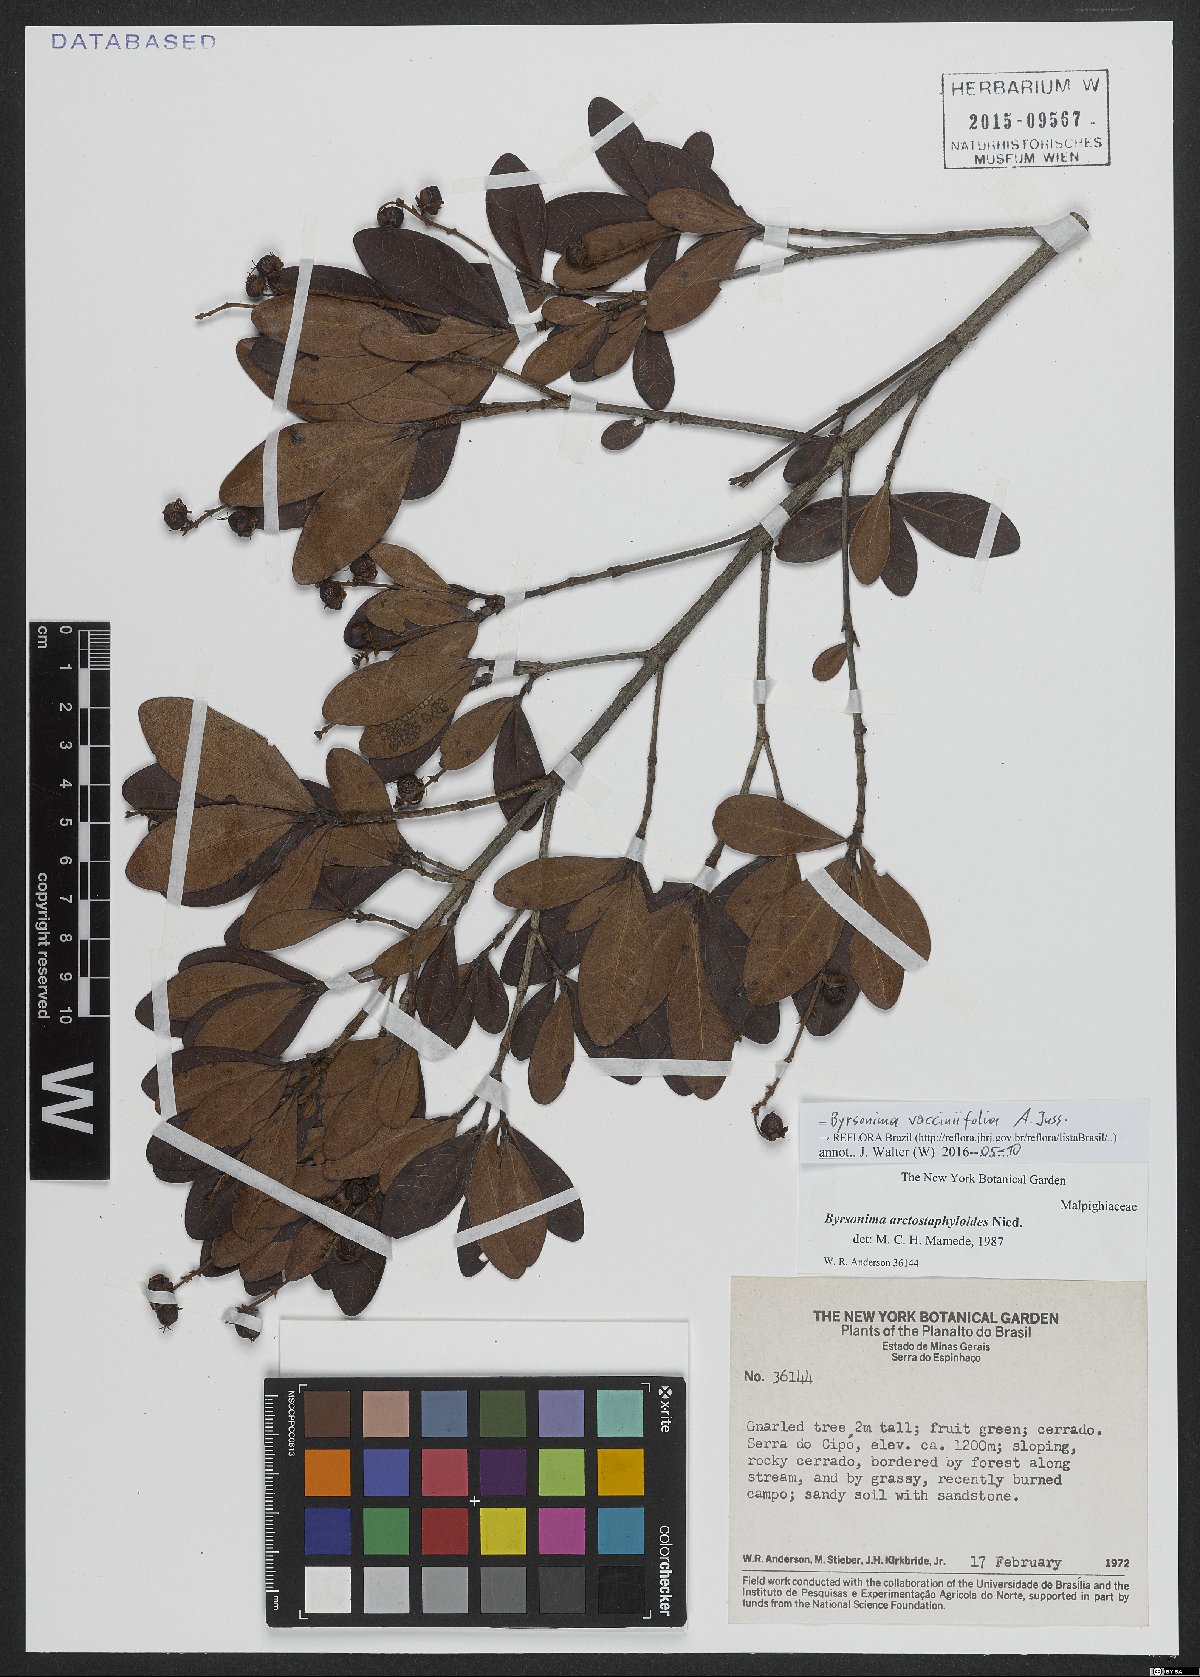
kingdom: Plantae
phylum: Tracheophyta
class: Magnoliopsida
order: Malpighiales
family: Malpighiaceae
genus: Byrsonima
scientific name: Byrsonima vacciniifolia
